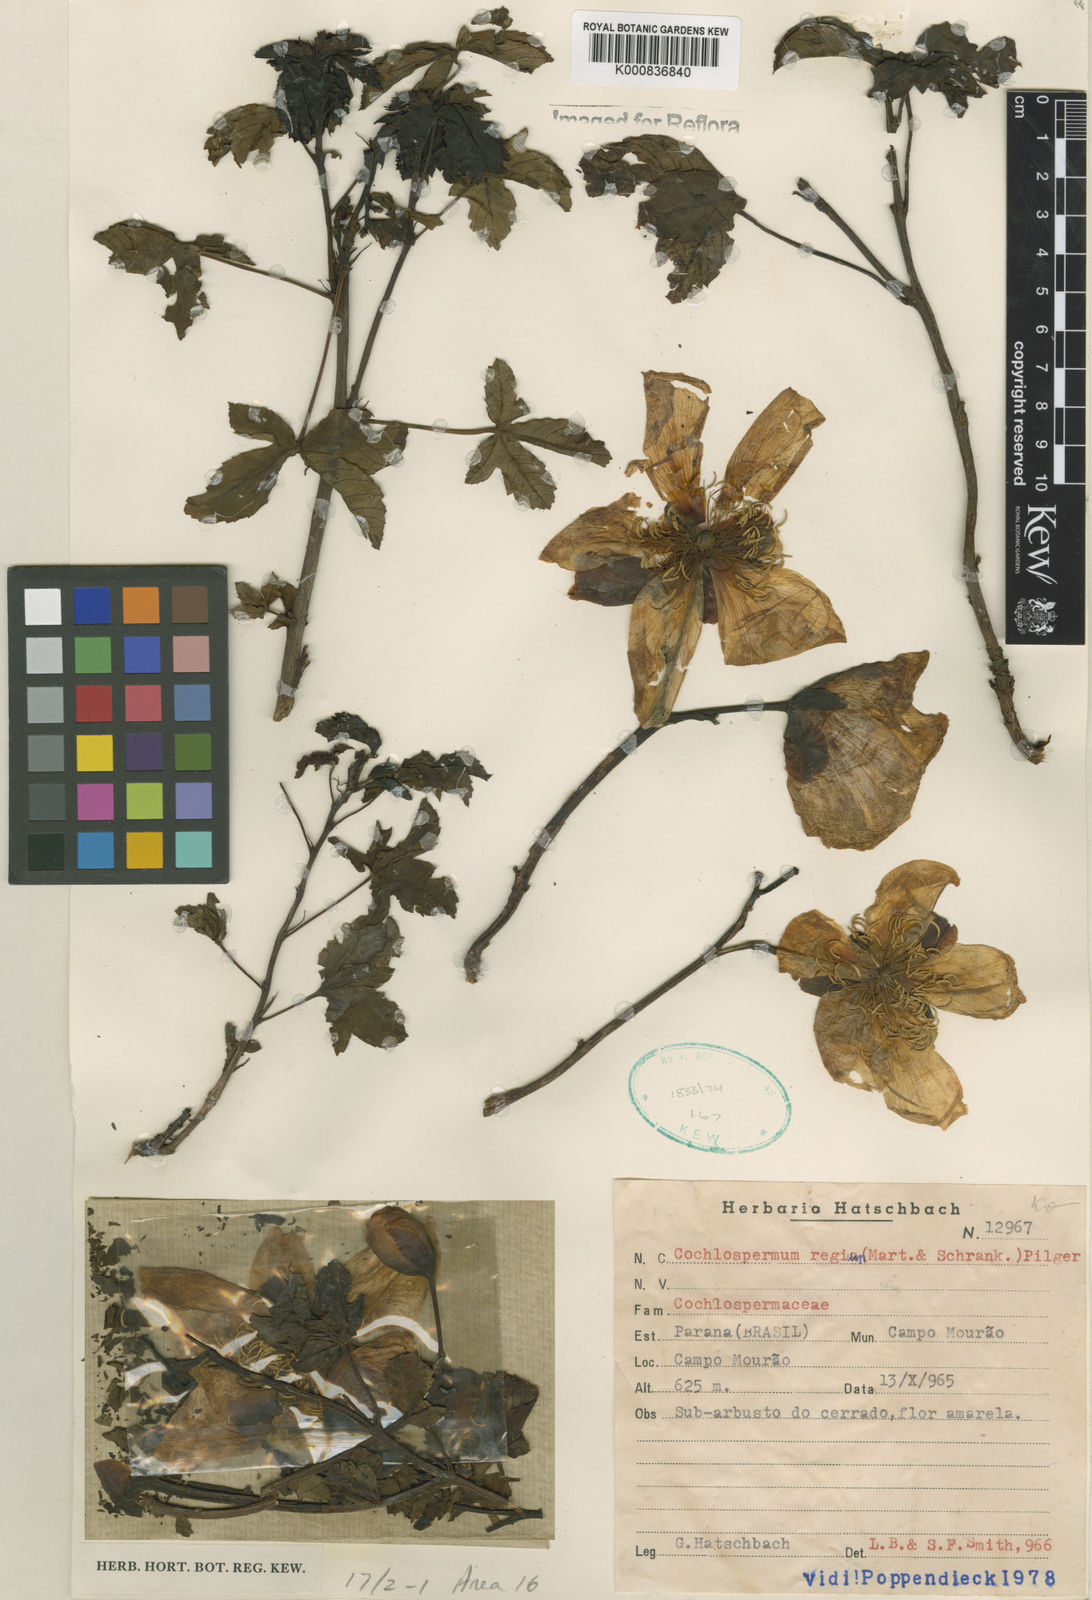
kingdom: Plantae
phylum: Tracheophyta
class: Magnoliopsida
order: Malvales
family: Cochlospermaceae
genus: Cochlospermum
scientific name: Cochlospermum regium
